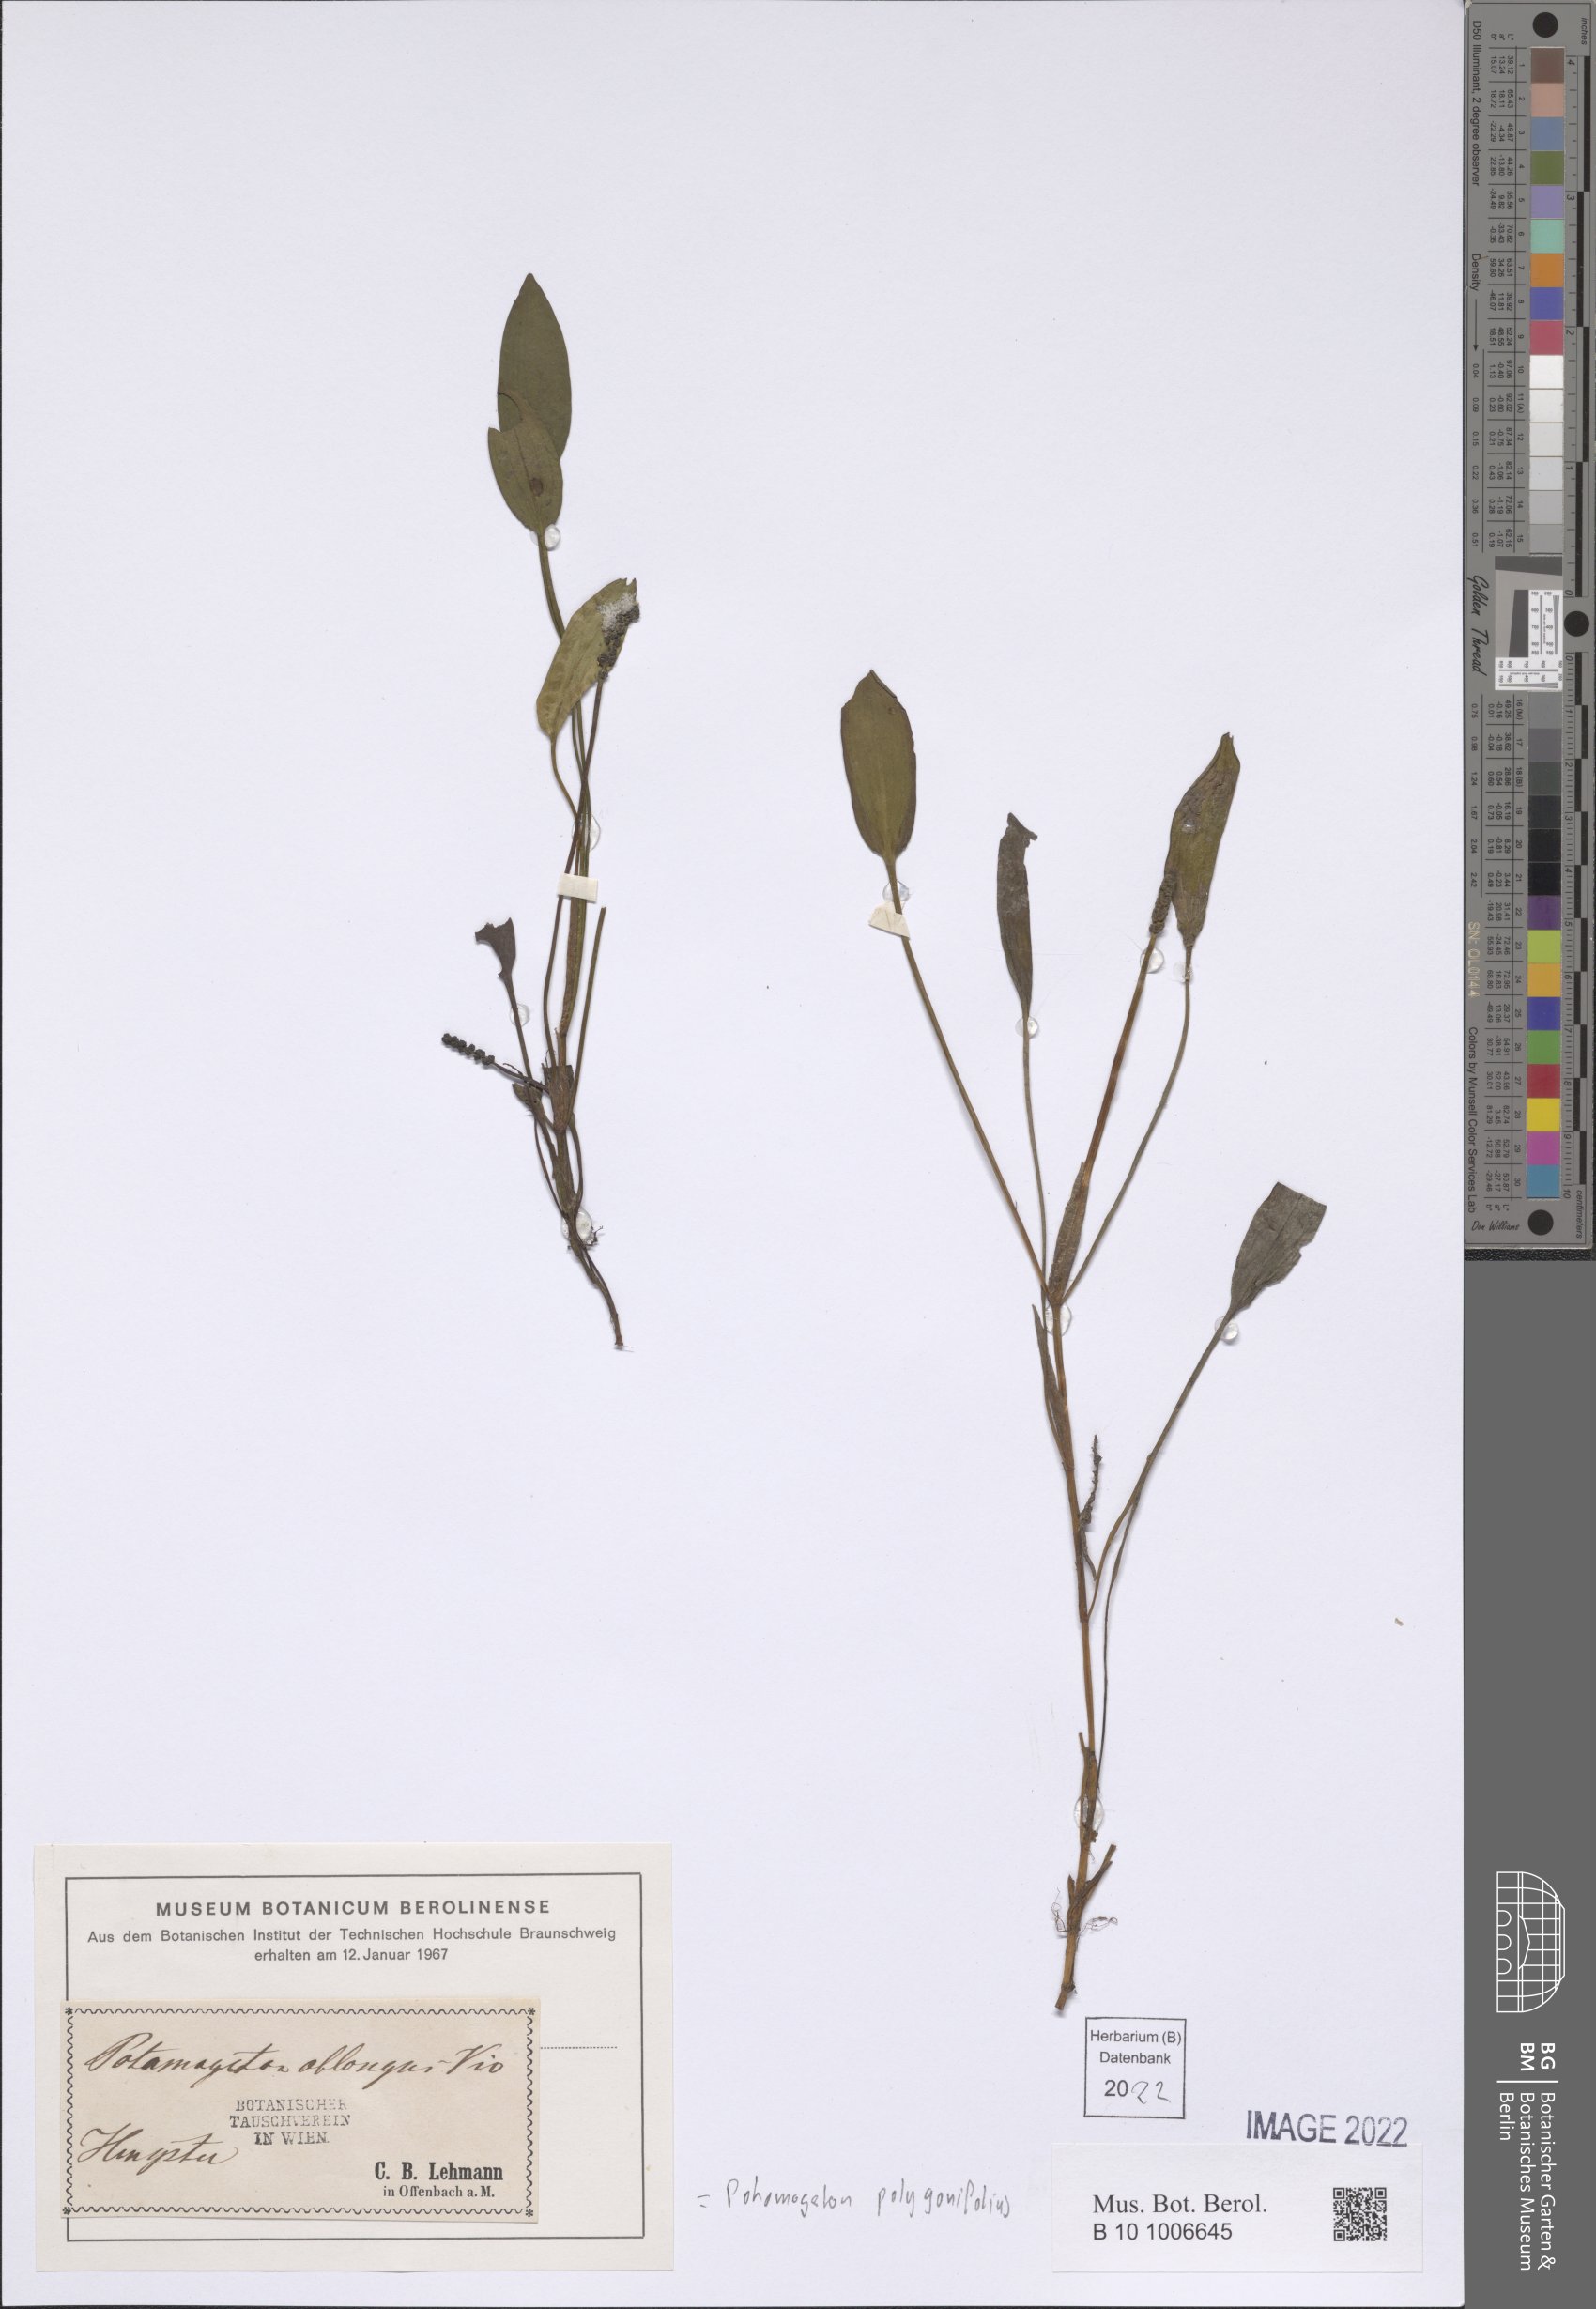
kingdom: Plantae
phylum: Tracheophyta
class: Liliopsida
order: Alismatales
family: Potamogetonaceae
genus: Potamogeton
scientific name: Potamogeton polygonifolius
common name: Bog pondweed
